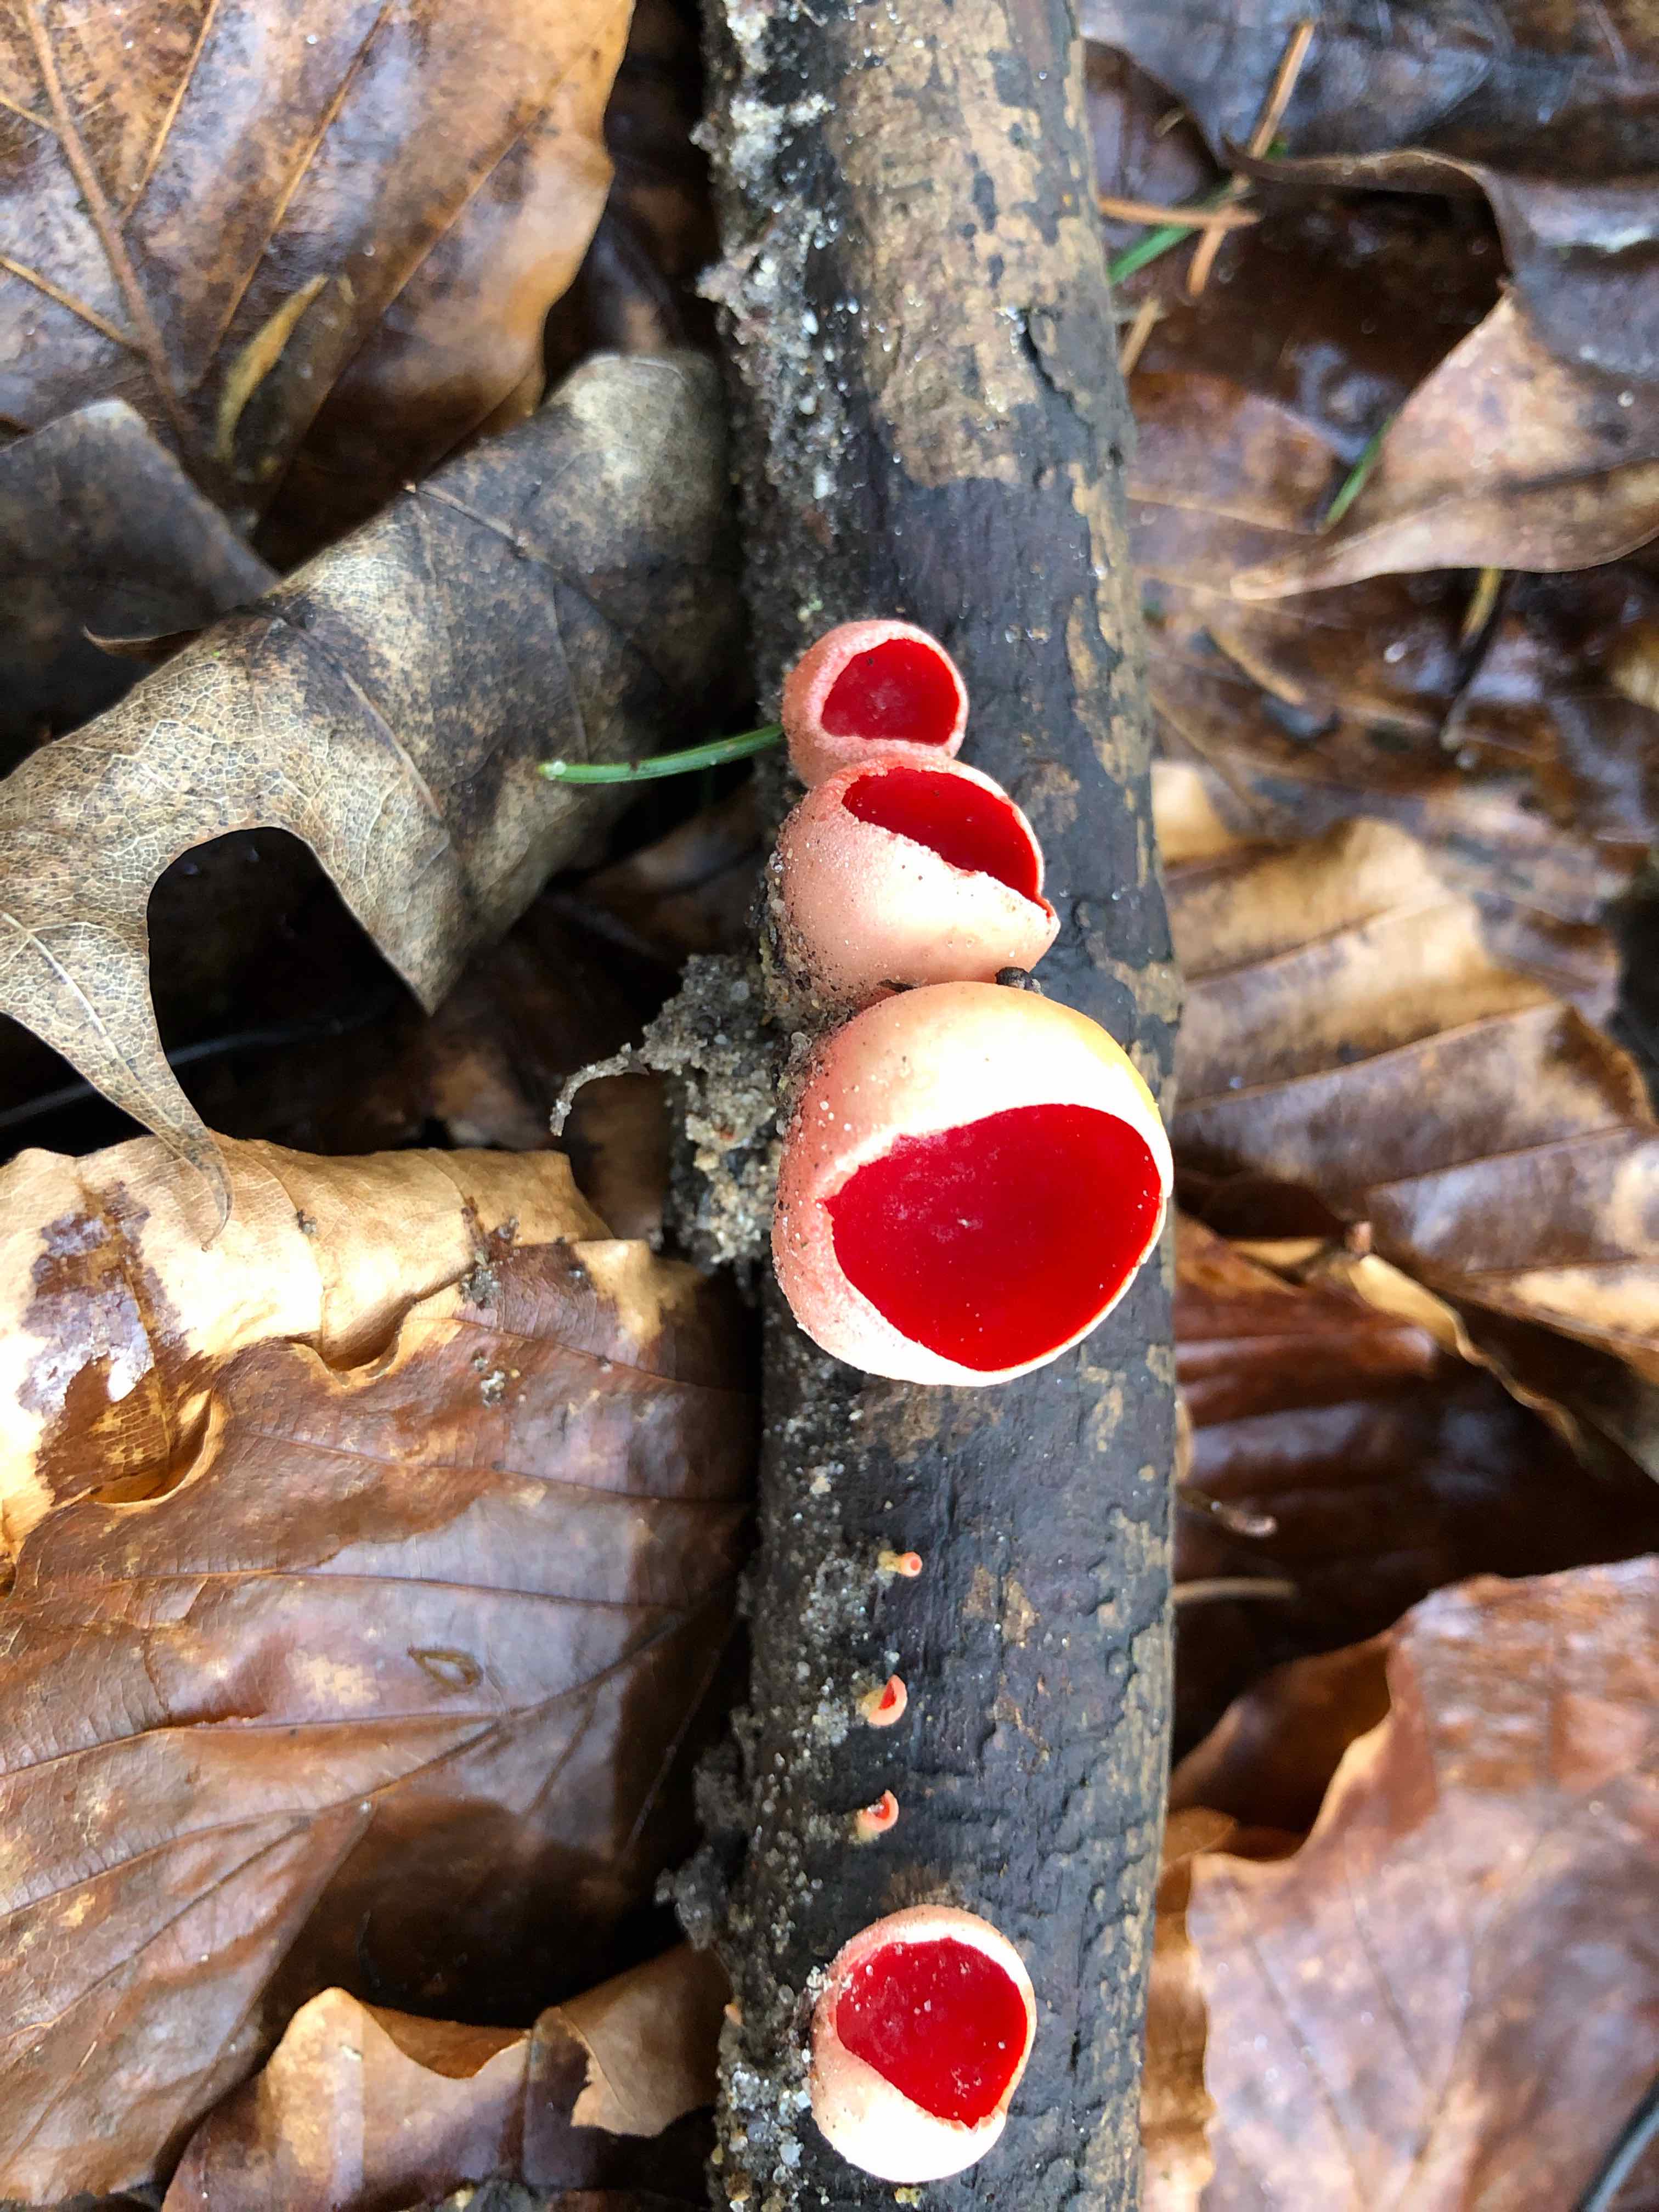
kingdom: Fungi
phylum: Ascomycota
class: Pezizomycetes
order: Pezizales
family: Sarcoscyphaceae
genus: Sarcoscypha
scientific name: Sarcoscypha austriaca
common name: krølhåret pragtbæger
